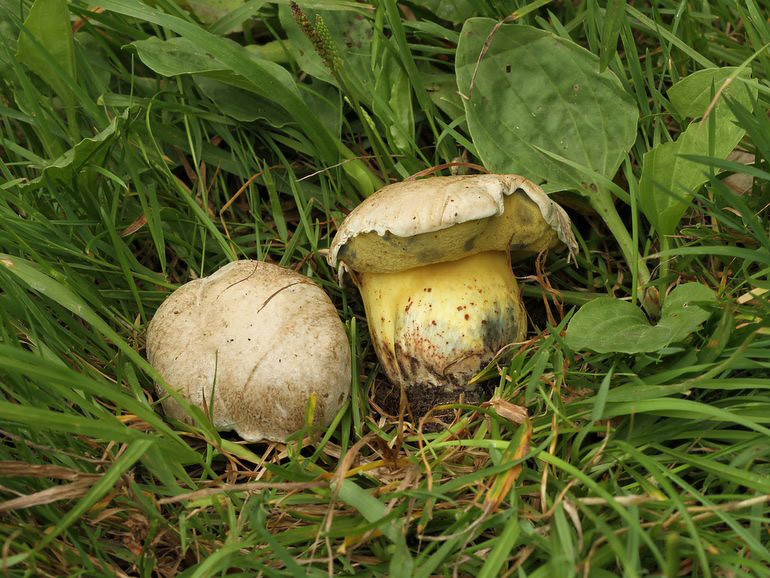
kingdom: Fungi
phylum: Basidiomycota
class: Agaricomycetes
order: Boletales
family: Boletaceae
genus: Caloboletus
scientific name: Caloboletus radicans
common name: rod-rørhat
